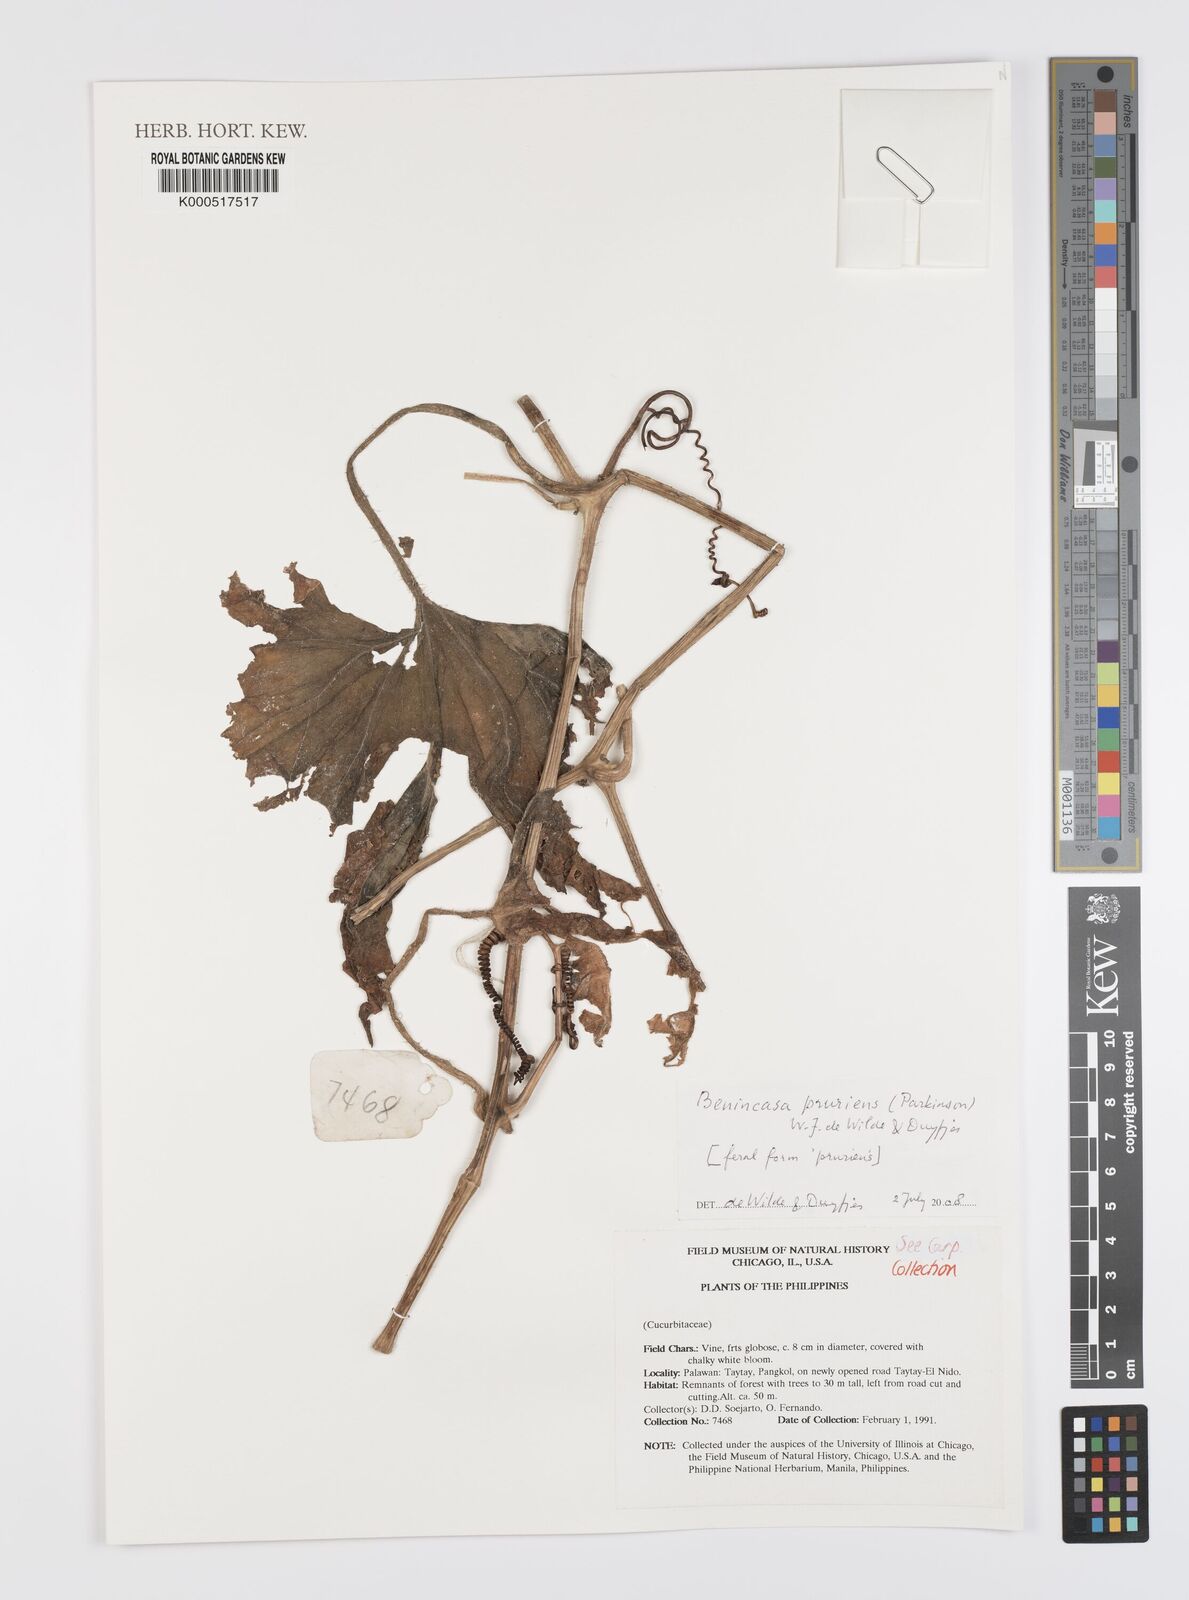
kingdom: Plantae
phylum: Tracheophyta
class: Magnoliopsida
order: Cucurbitales
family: Cucurbitaceae
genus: Benincasa
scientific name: Benincasa pruriens
